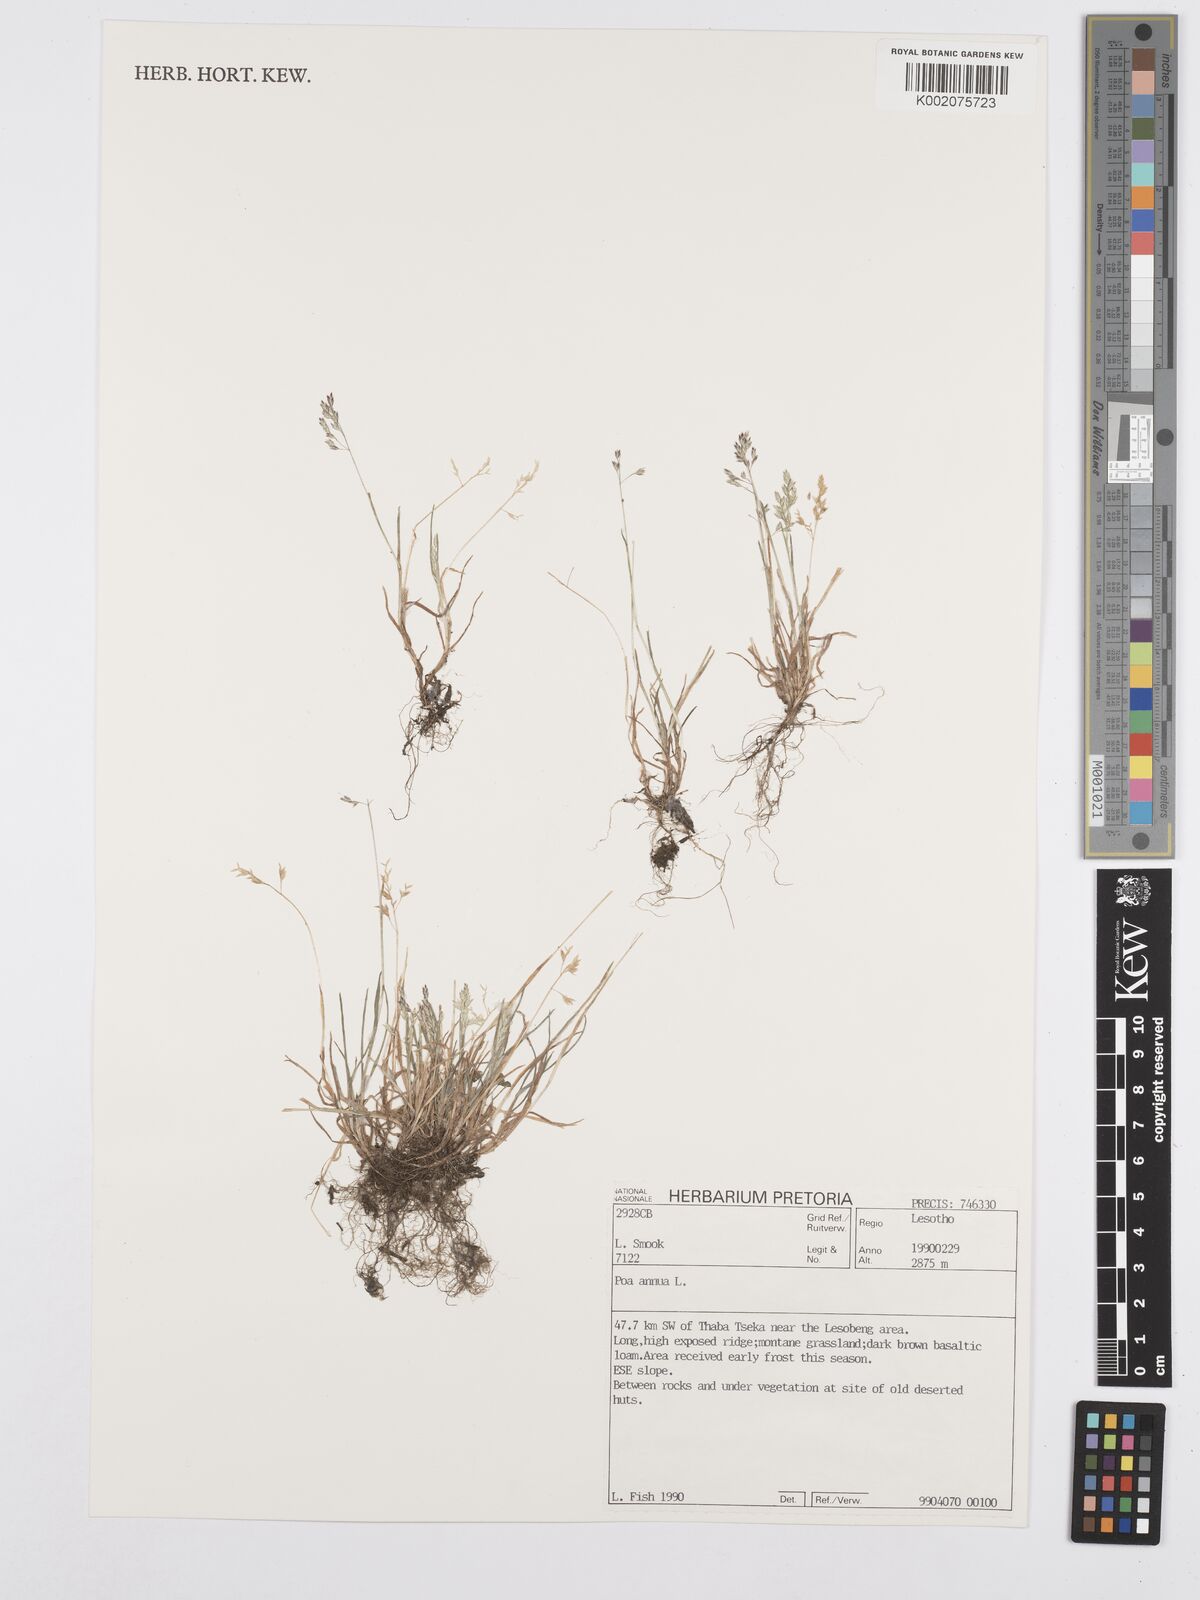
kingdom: Plantae
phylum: Tracheophyta
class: Liliopsida
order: Poales
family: Poaceae
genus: Poa
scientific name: Poa annua
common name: Annual bluegrass
